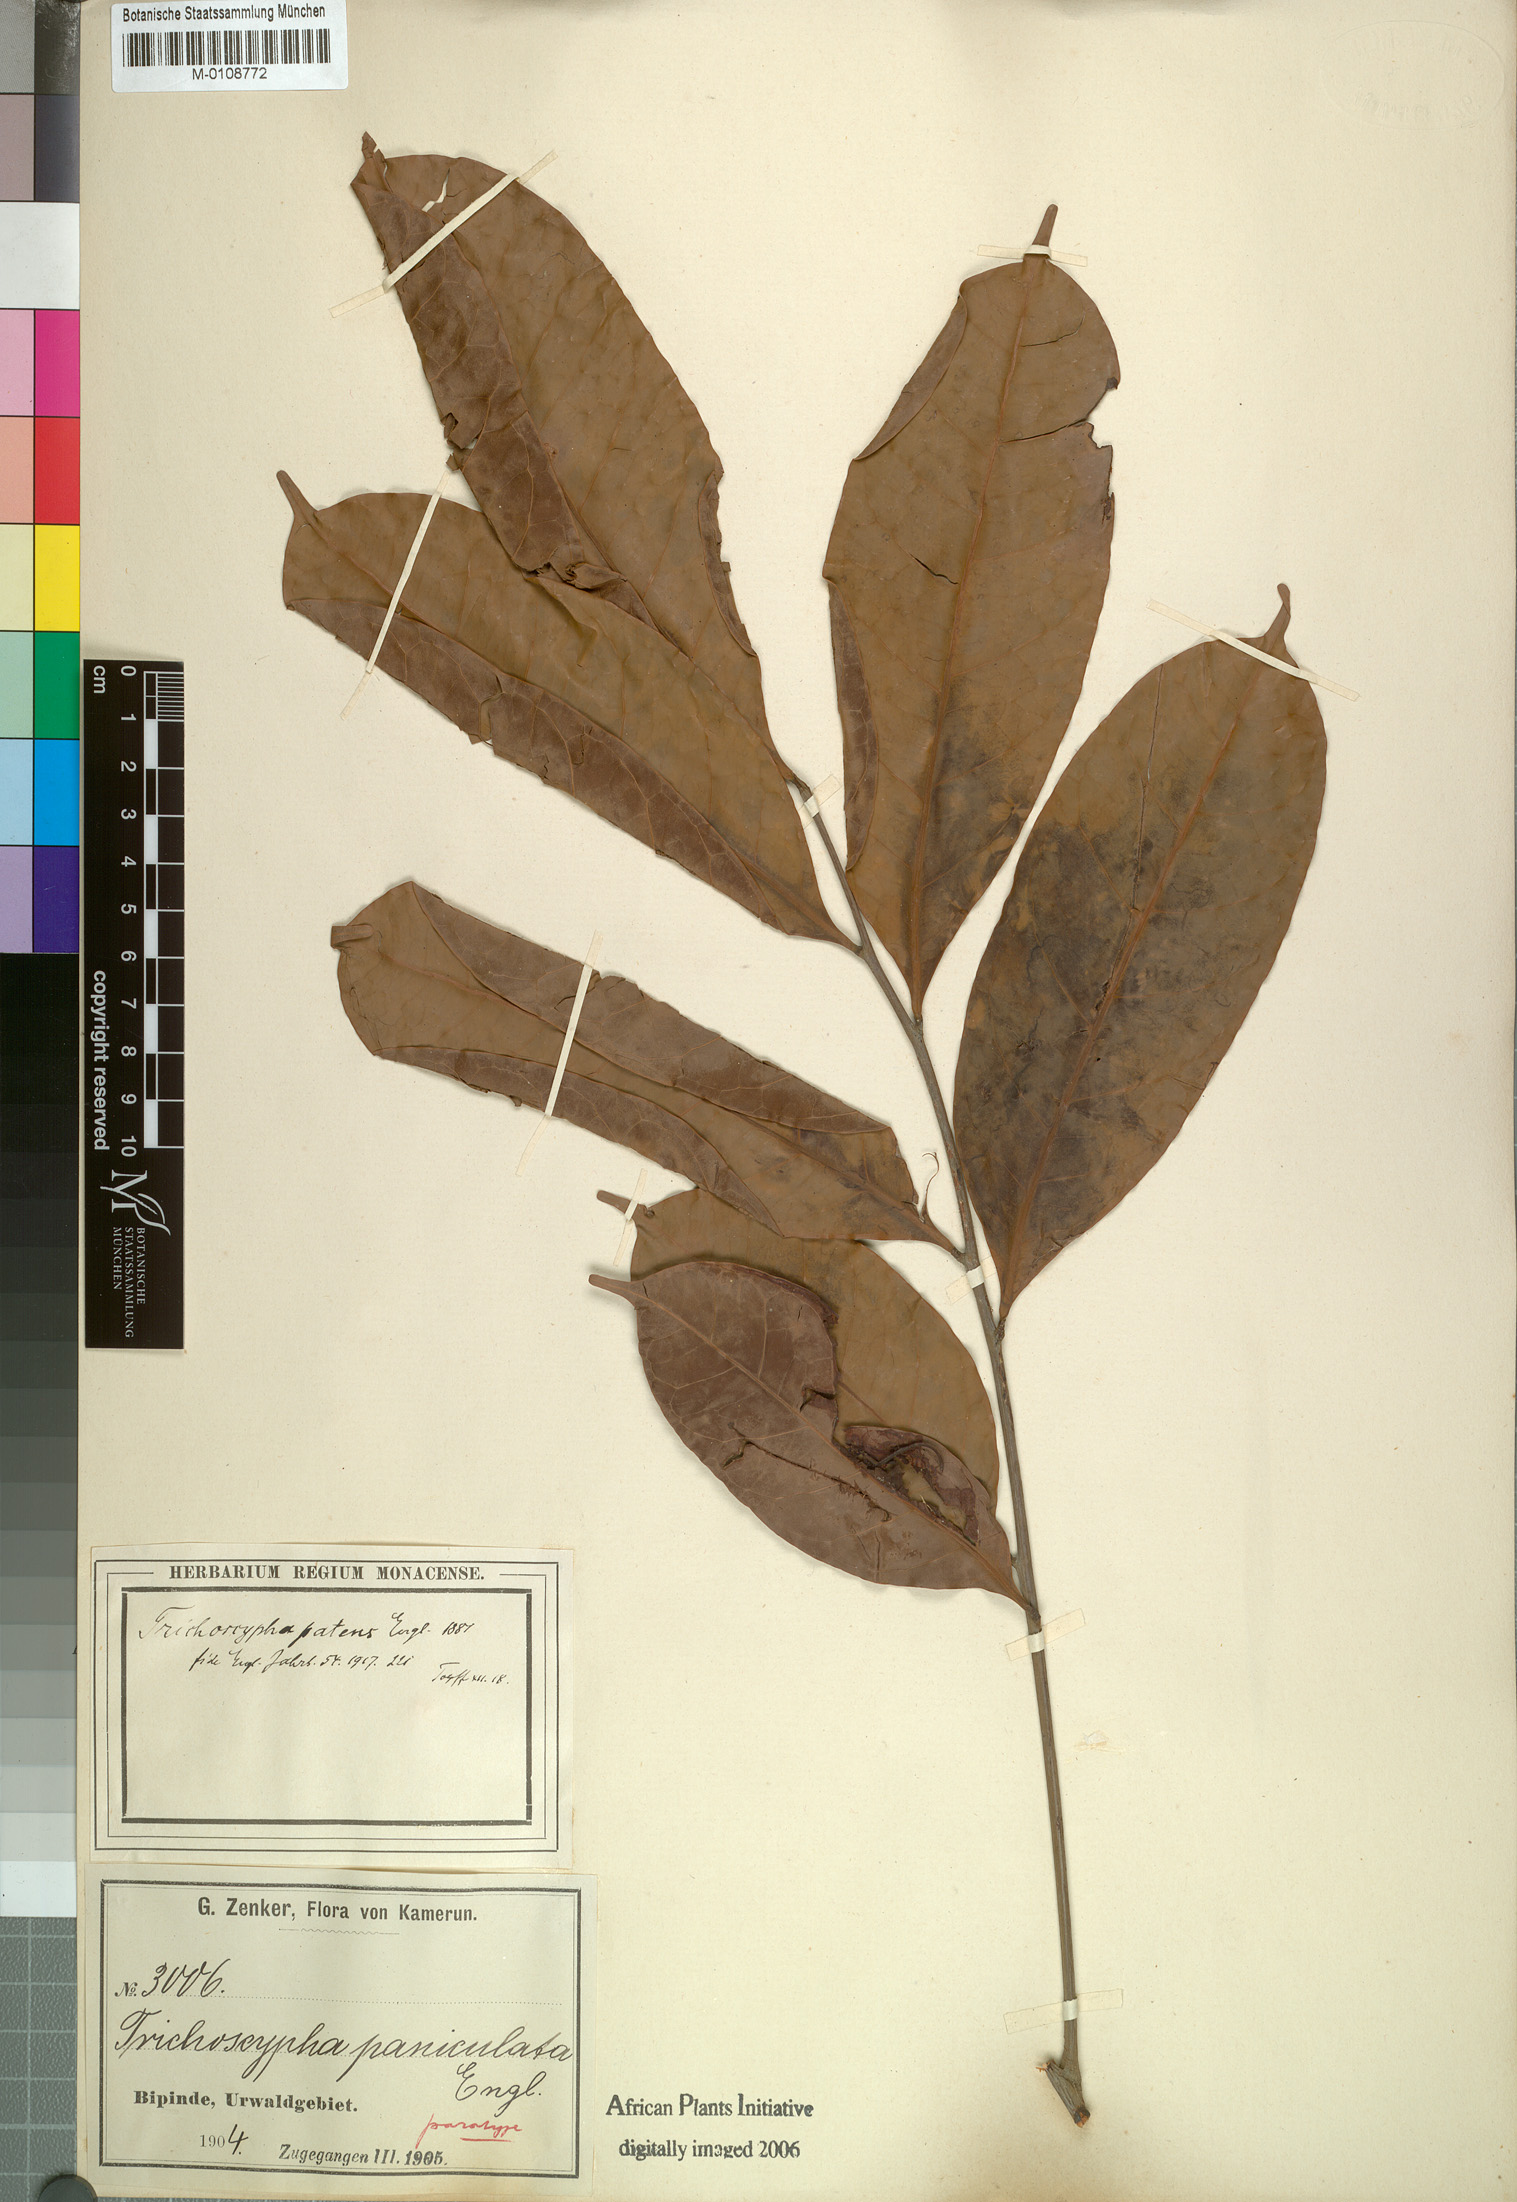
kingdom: Plantae
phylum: Tracheophyta
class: Magnoliopsida
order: Sapindales
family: Anacardiaceae
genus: Trichoscypha
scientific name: Trichoscypha patens
